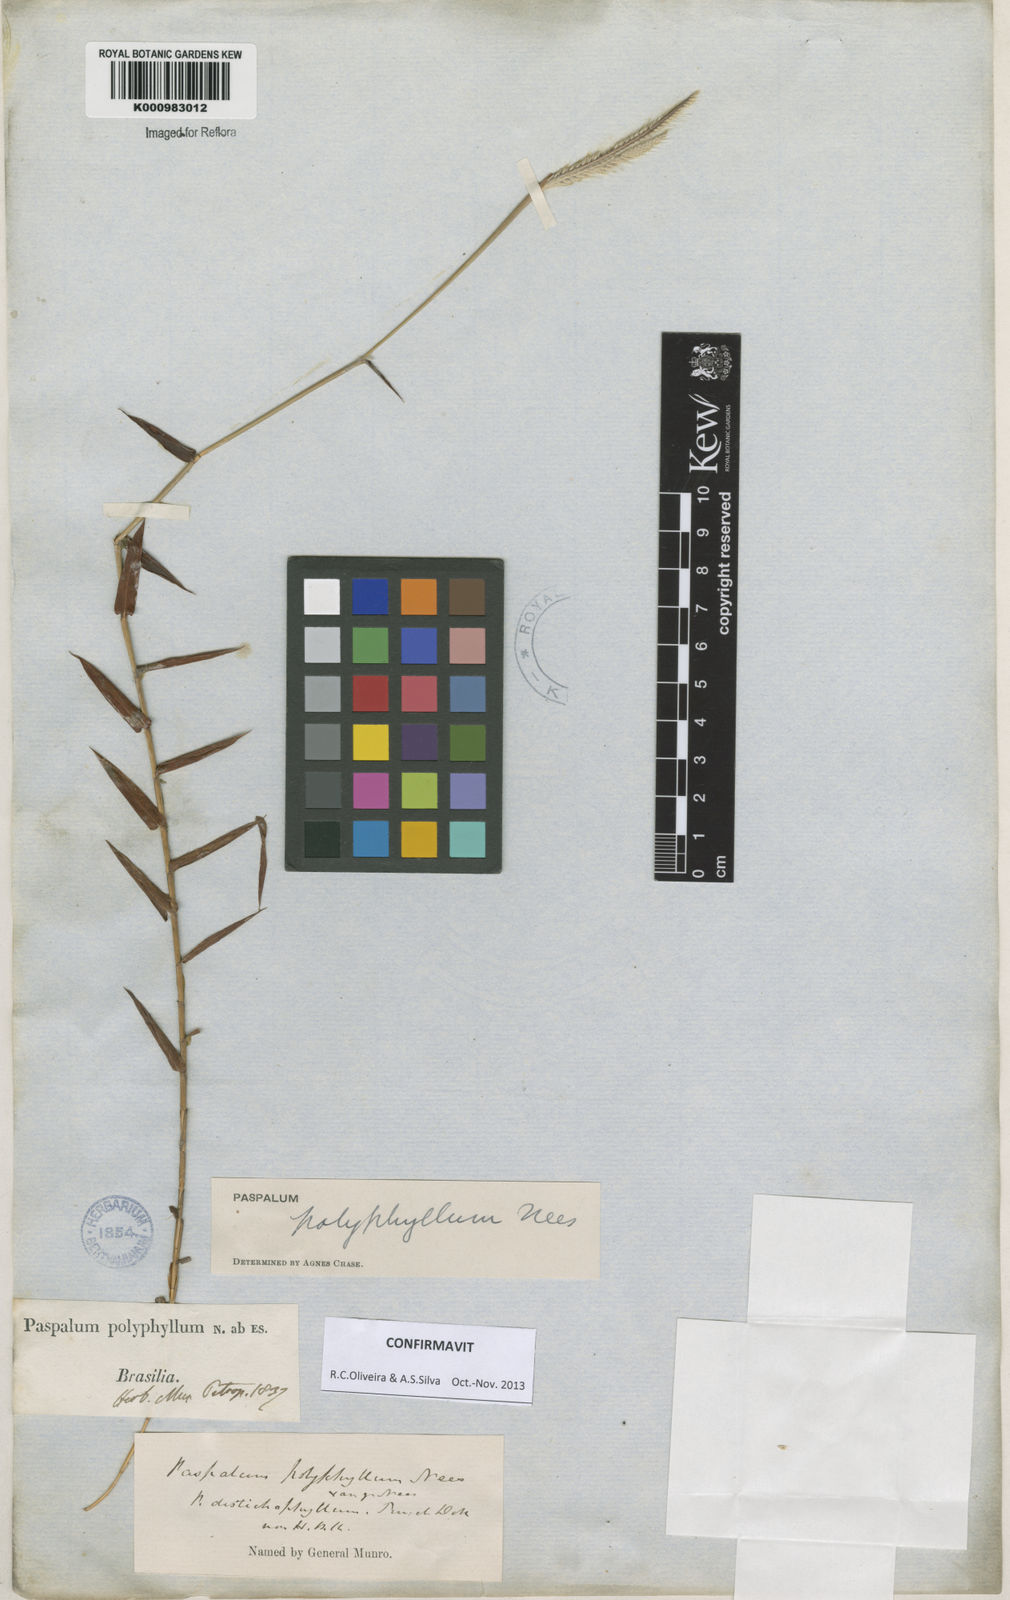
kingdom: Plantae
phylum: Tracheophyta
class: Liliopsida
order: Poales
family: Poaceae
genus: Paspalum
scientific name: Paspalum
